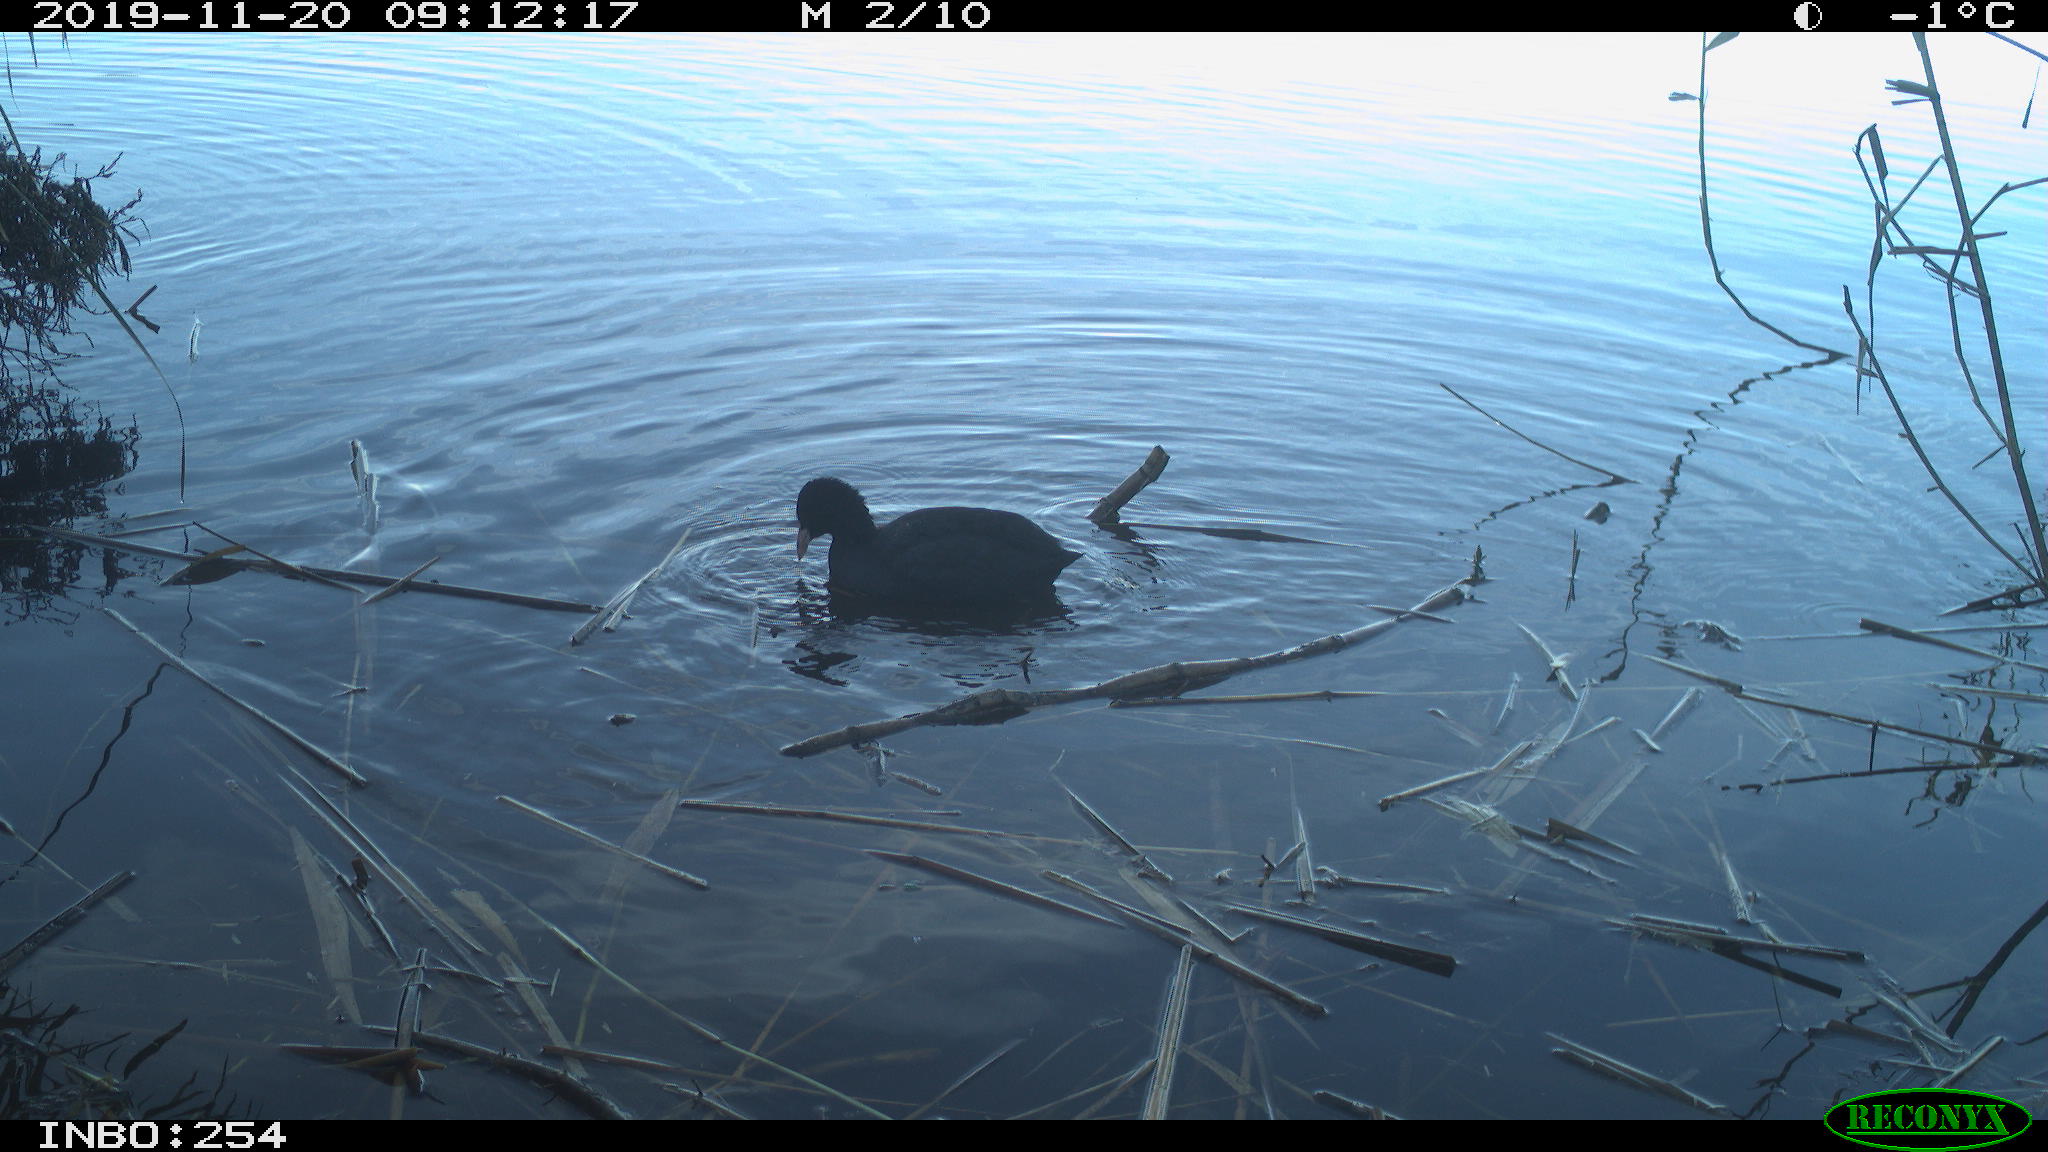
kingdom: Animalia
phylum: Chordata
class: Aves
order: Gruiformes
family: Rallidae
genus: Gallinula
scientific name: Gallinula chloropus
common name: Common moorhen
